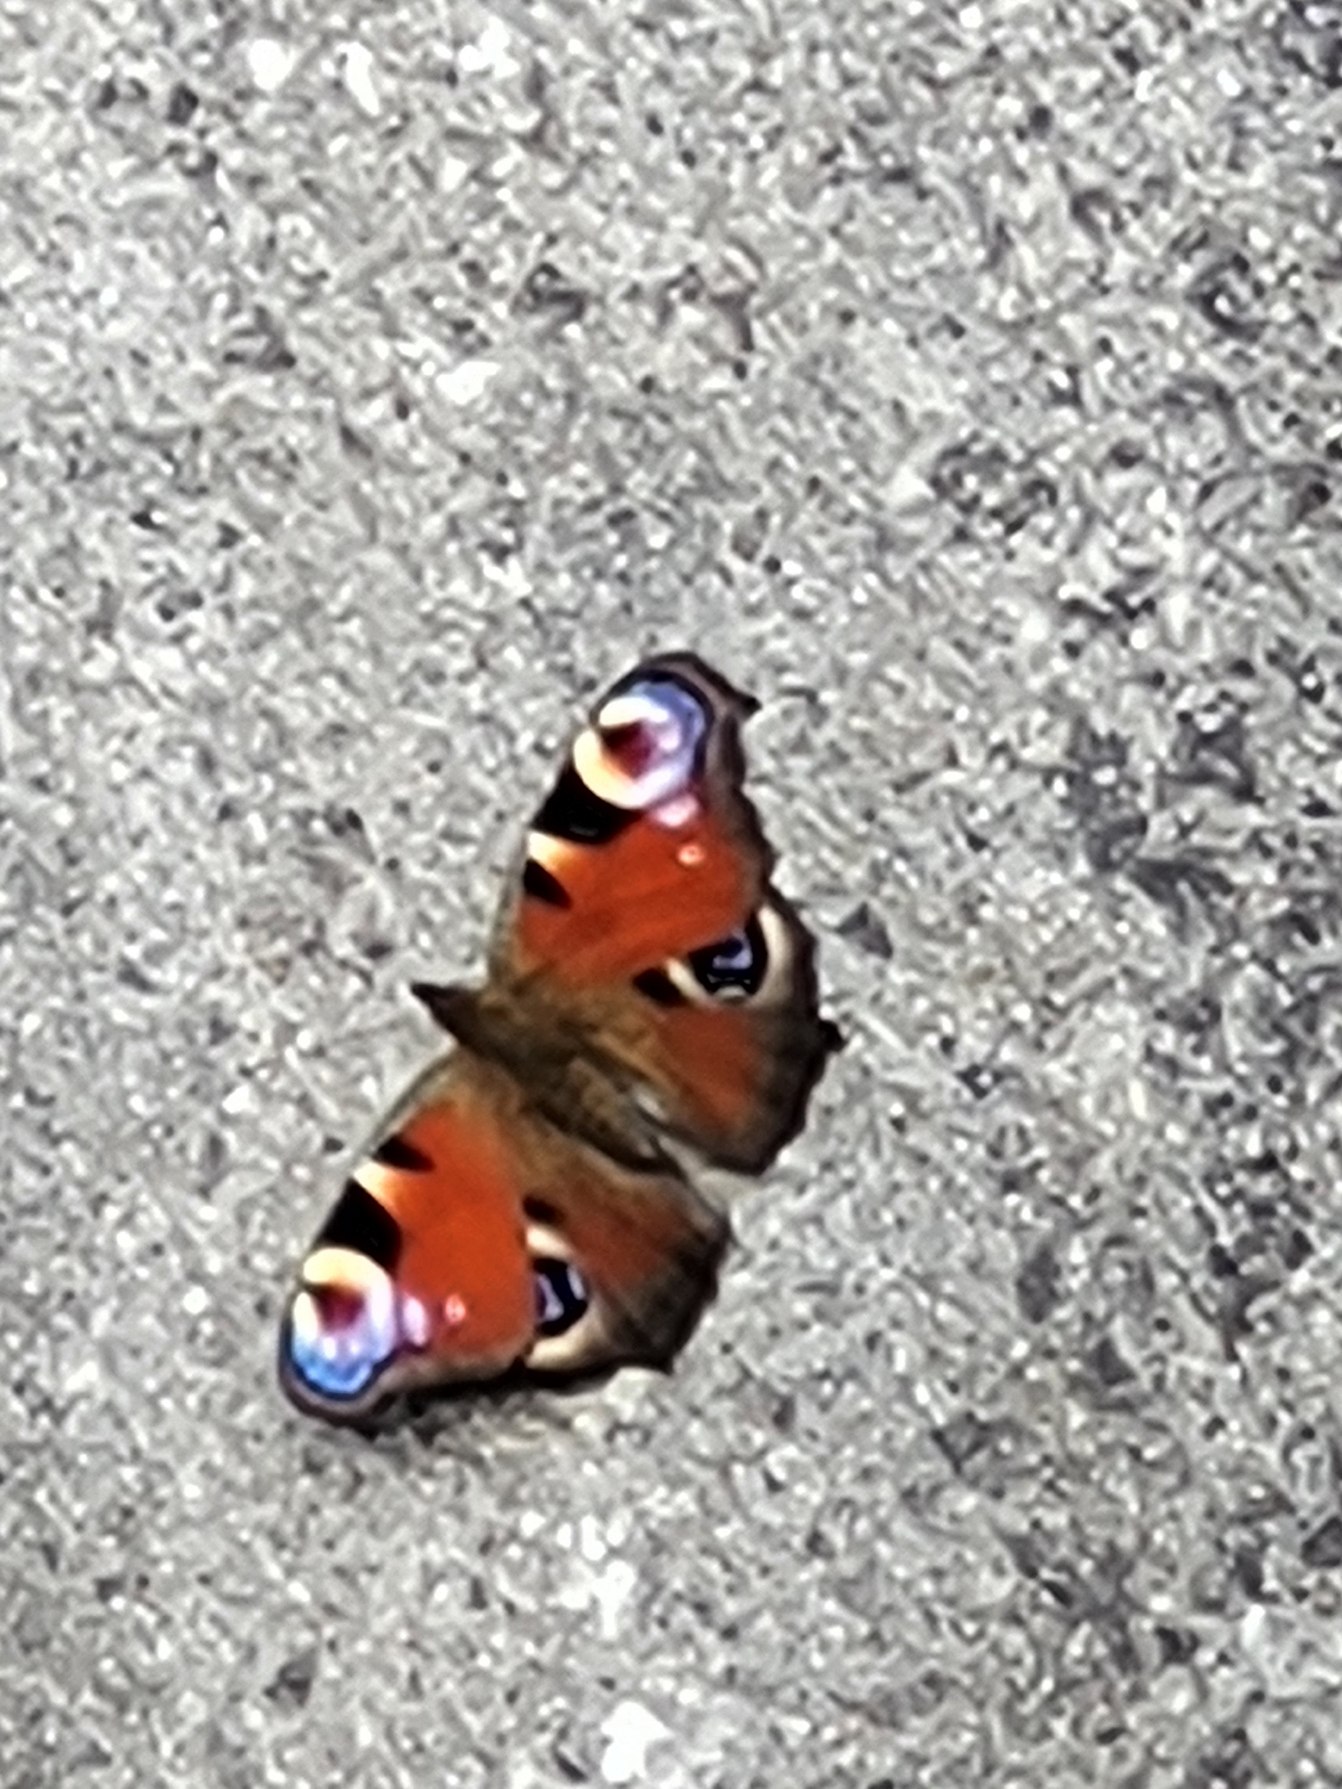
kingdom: Animalia
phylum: Arthropoda
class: Insecta
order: Lepidoptera
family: Nymphalidae
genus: Aglais
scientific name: Aglais io
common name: Dagpåfugleøje
